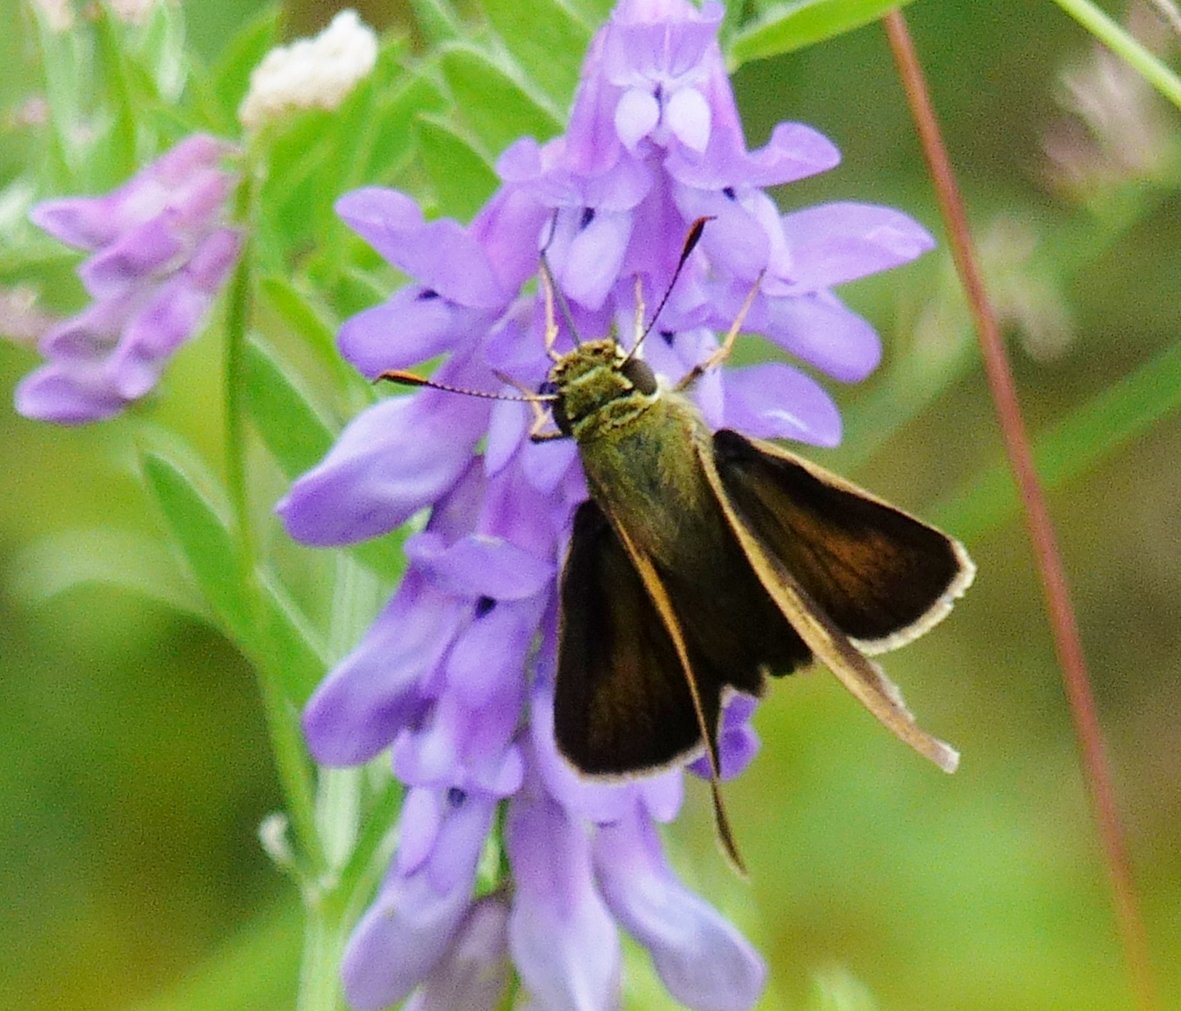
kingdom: Animalia
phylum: Arthropoda
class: Insecta
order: Lepidoptera
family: Hesperiidae
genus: Euphyes
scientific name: Euphyes vestris
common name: Dun Skipper
